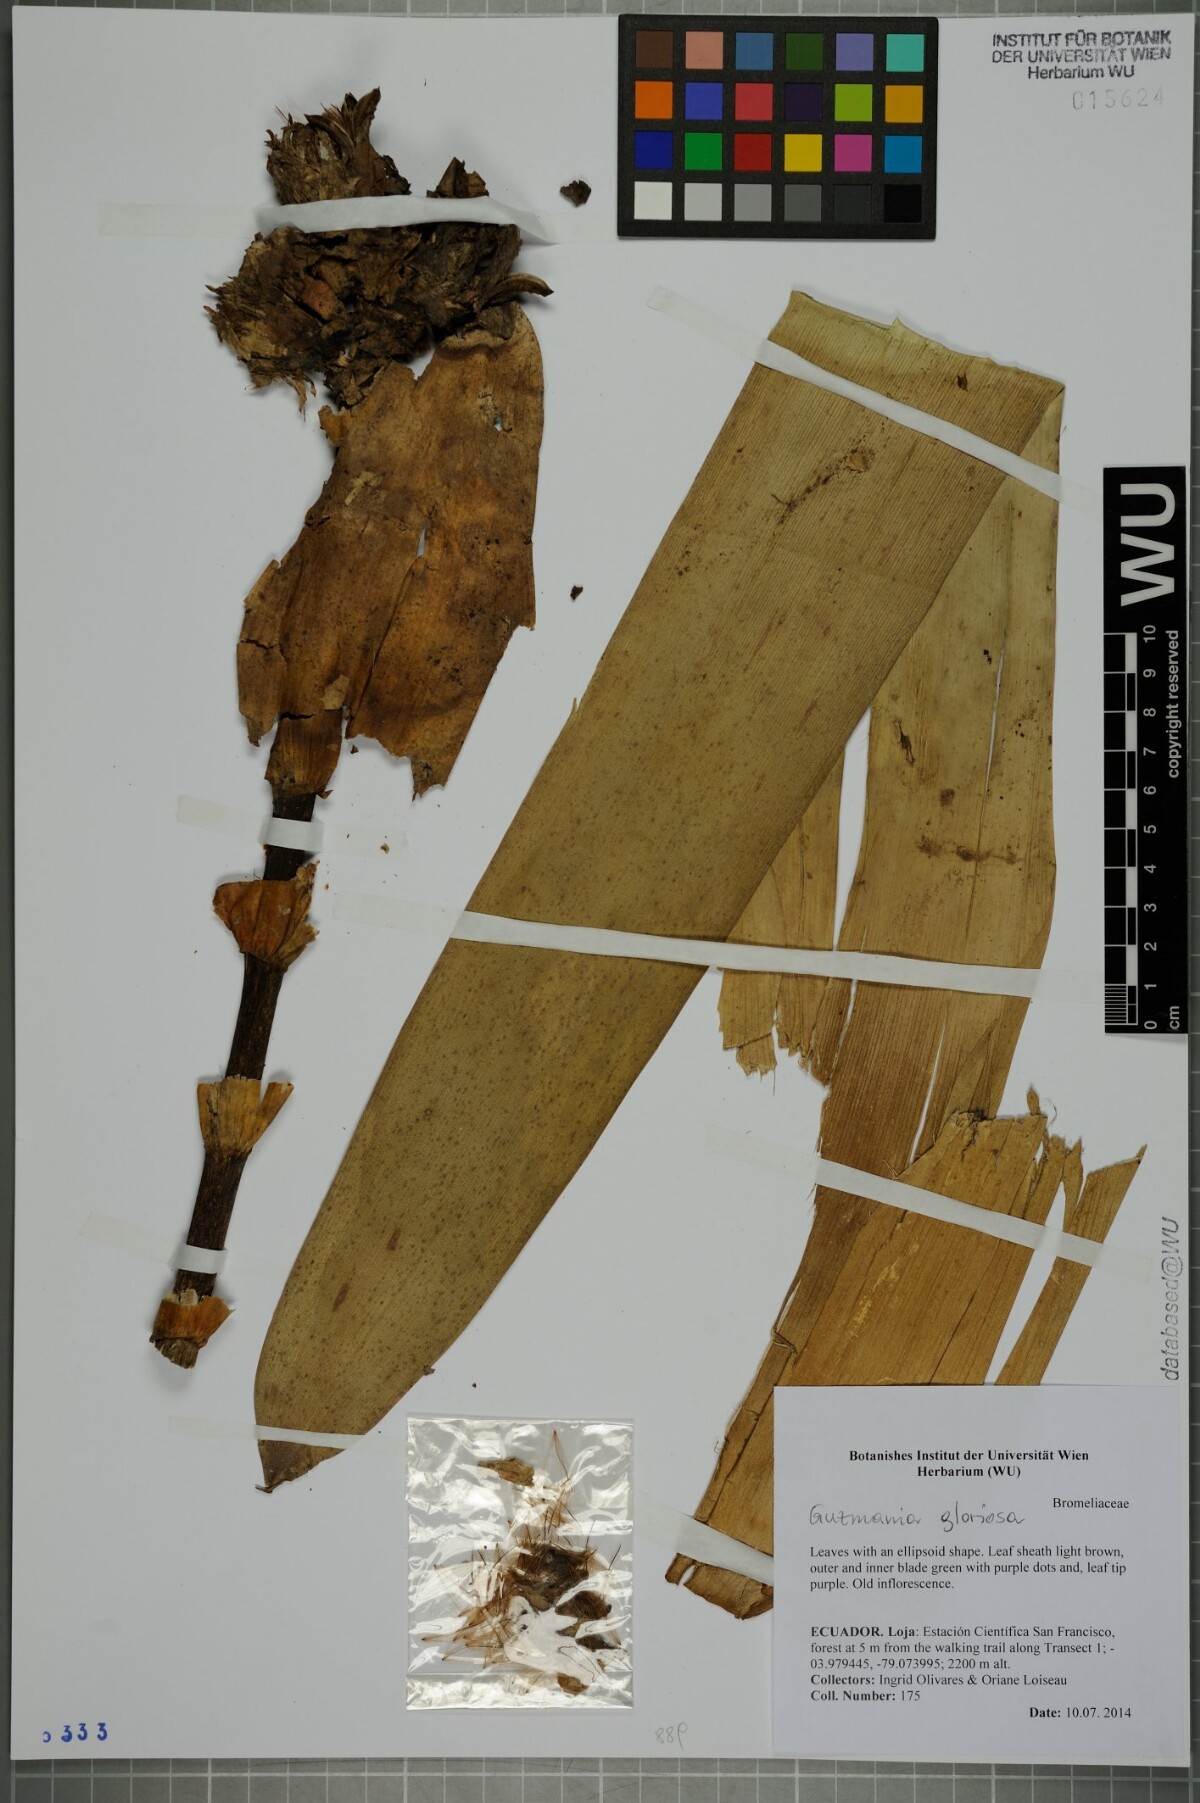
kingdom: Plantae
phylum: Tracheophyta
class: Liliopsida
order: Poales
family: Bromeliaceae
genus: Guzmania
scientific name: Guzmania gloriosa
